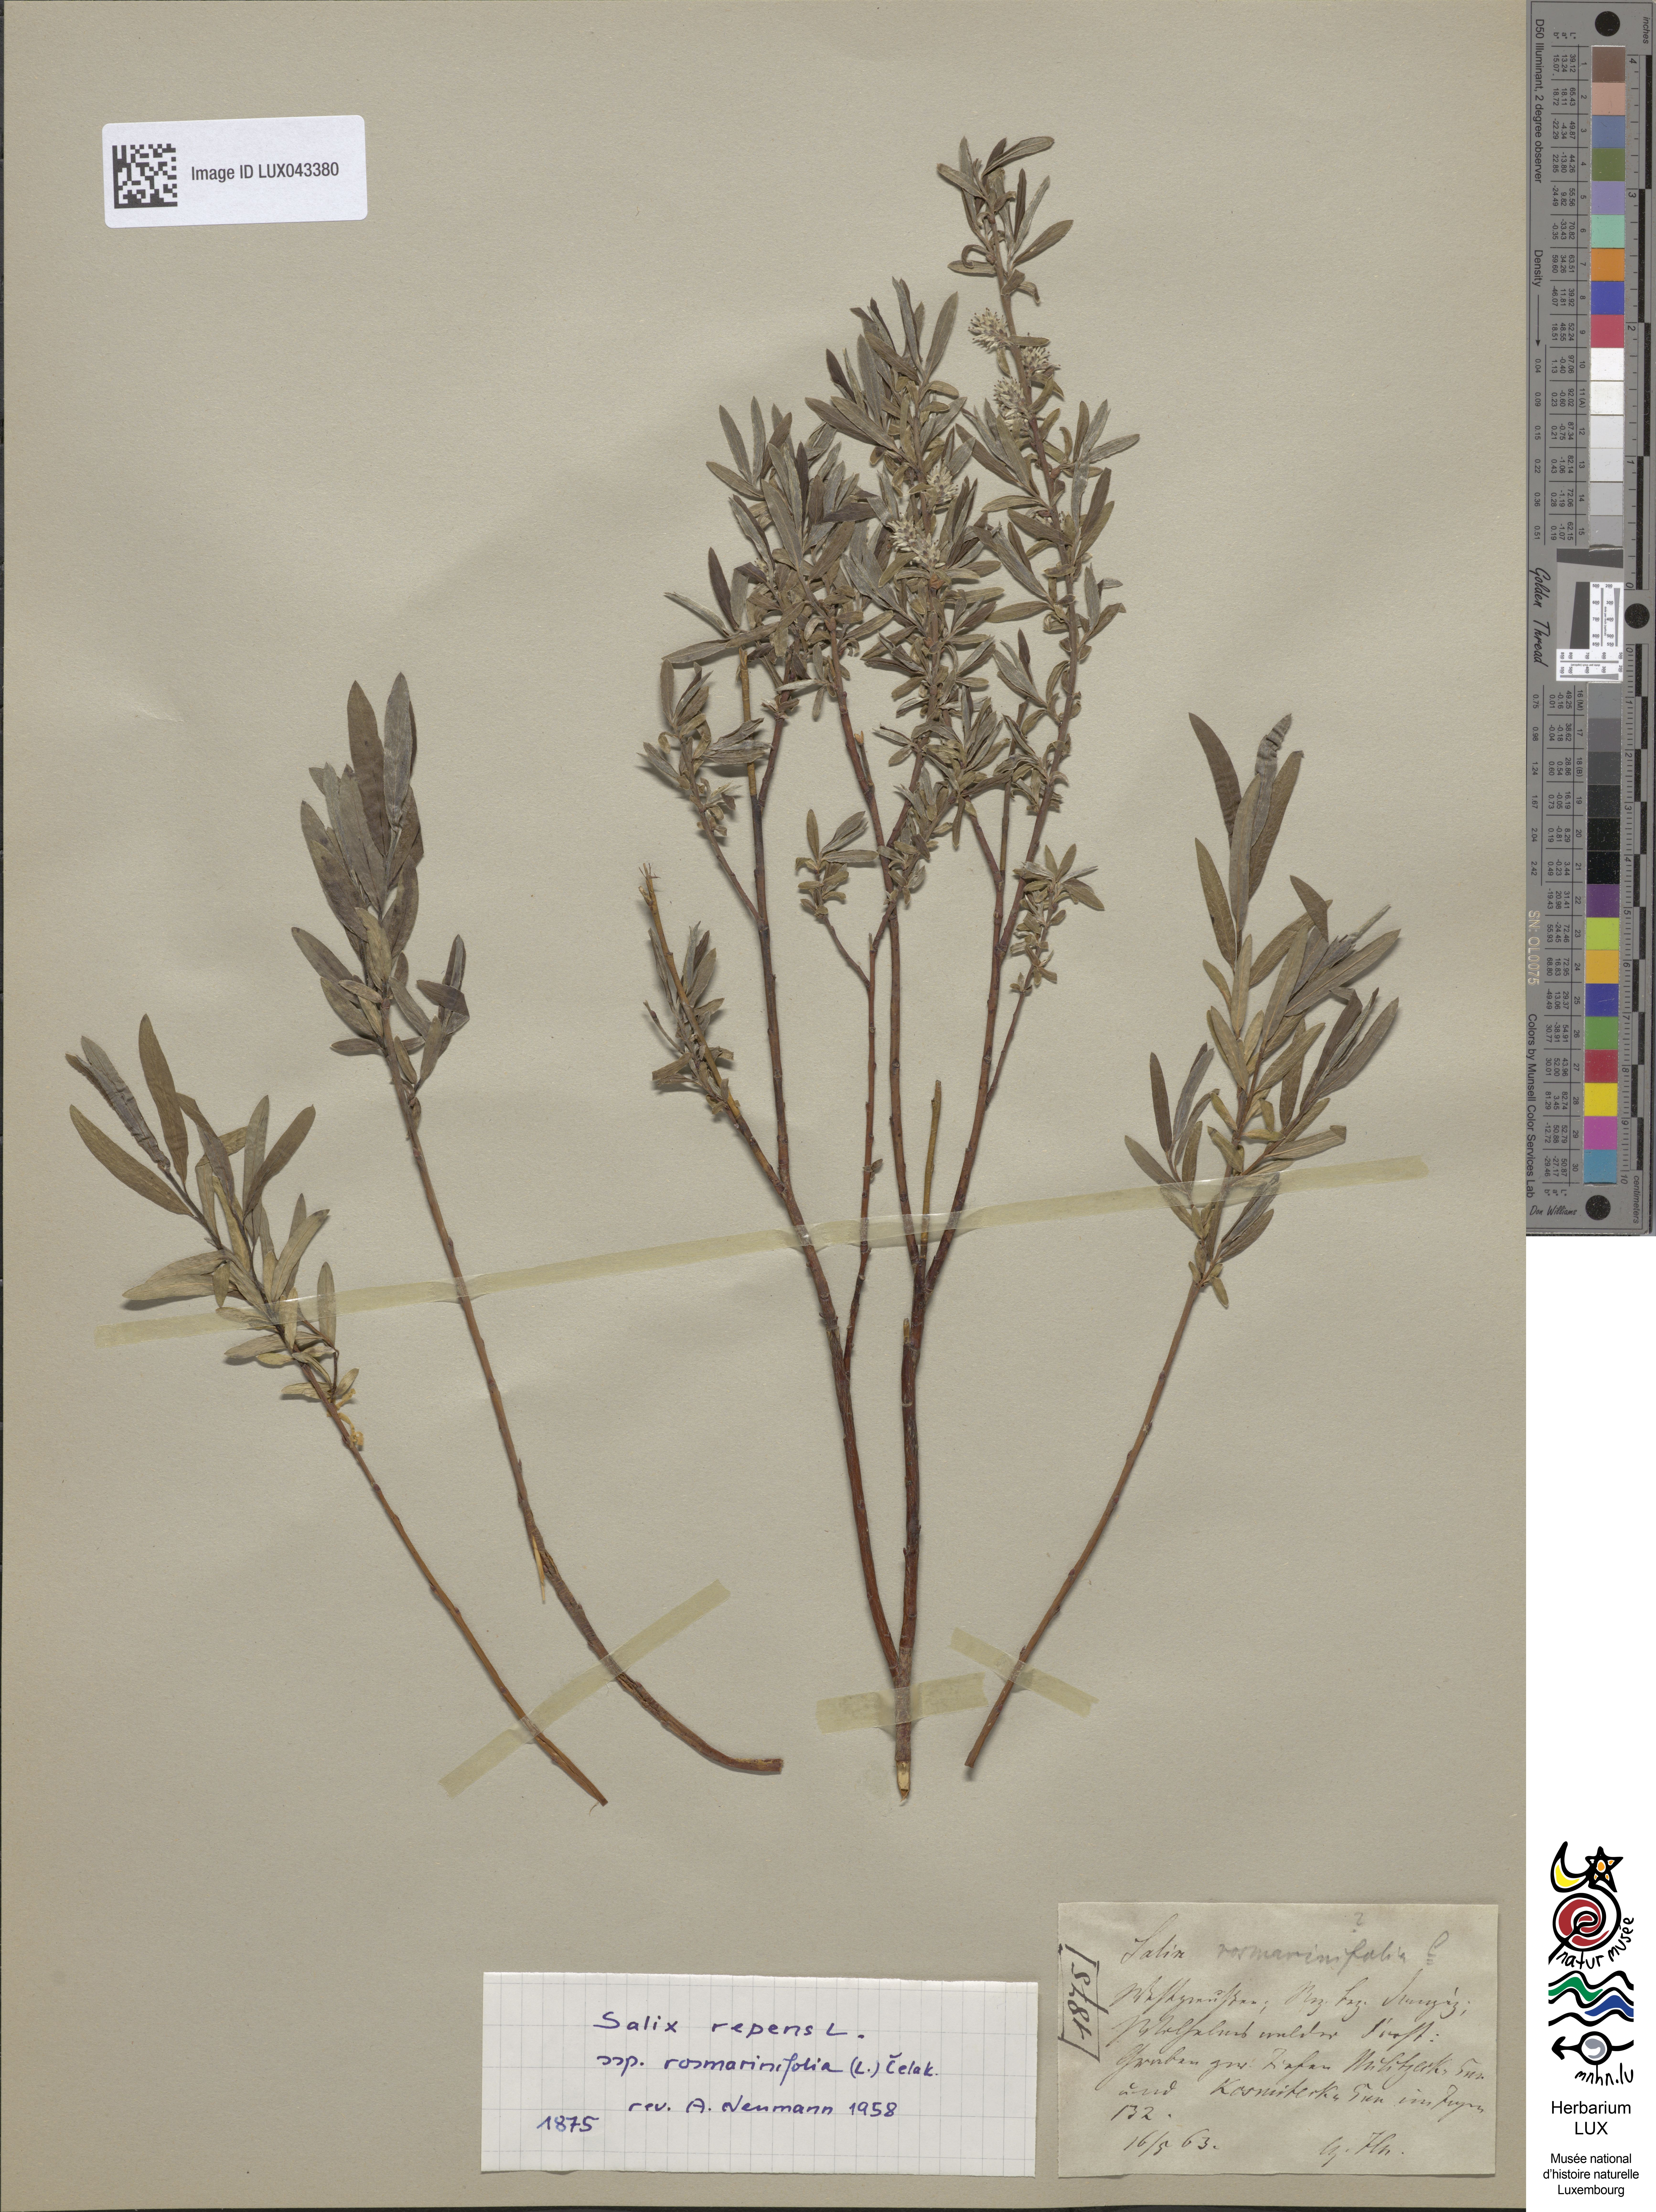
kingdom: Plantae
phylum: Tracheophyta
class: Magnoliopsida
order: Malpighiales
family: Salicaceae
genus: Salix
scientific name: Salix rosmarinifolia
